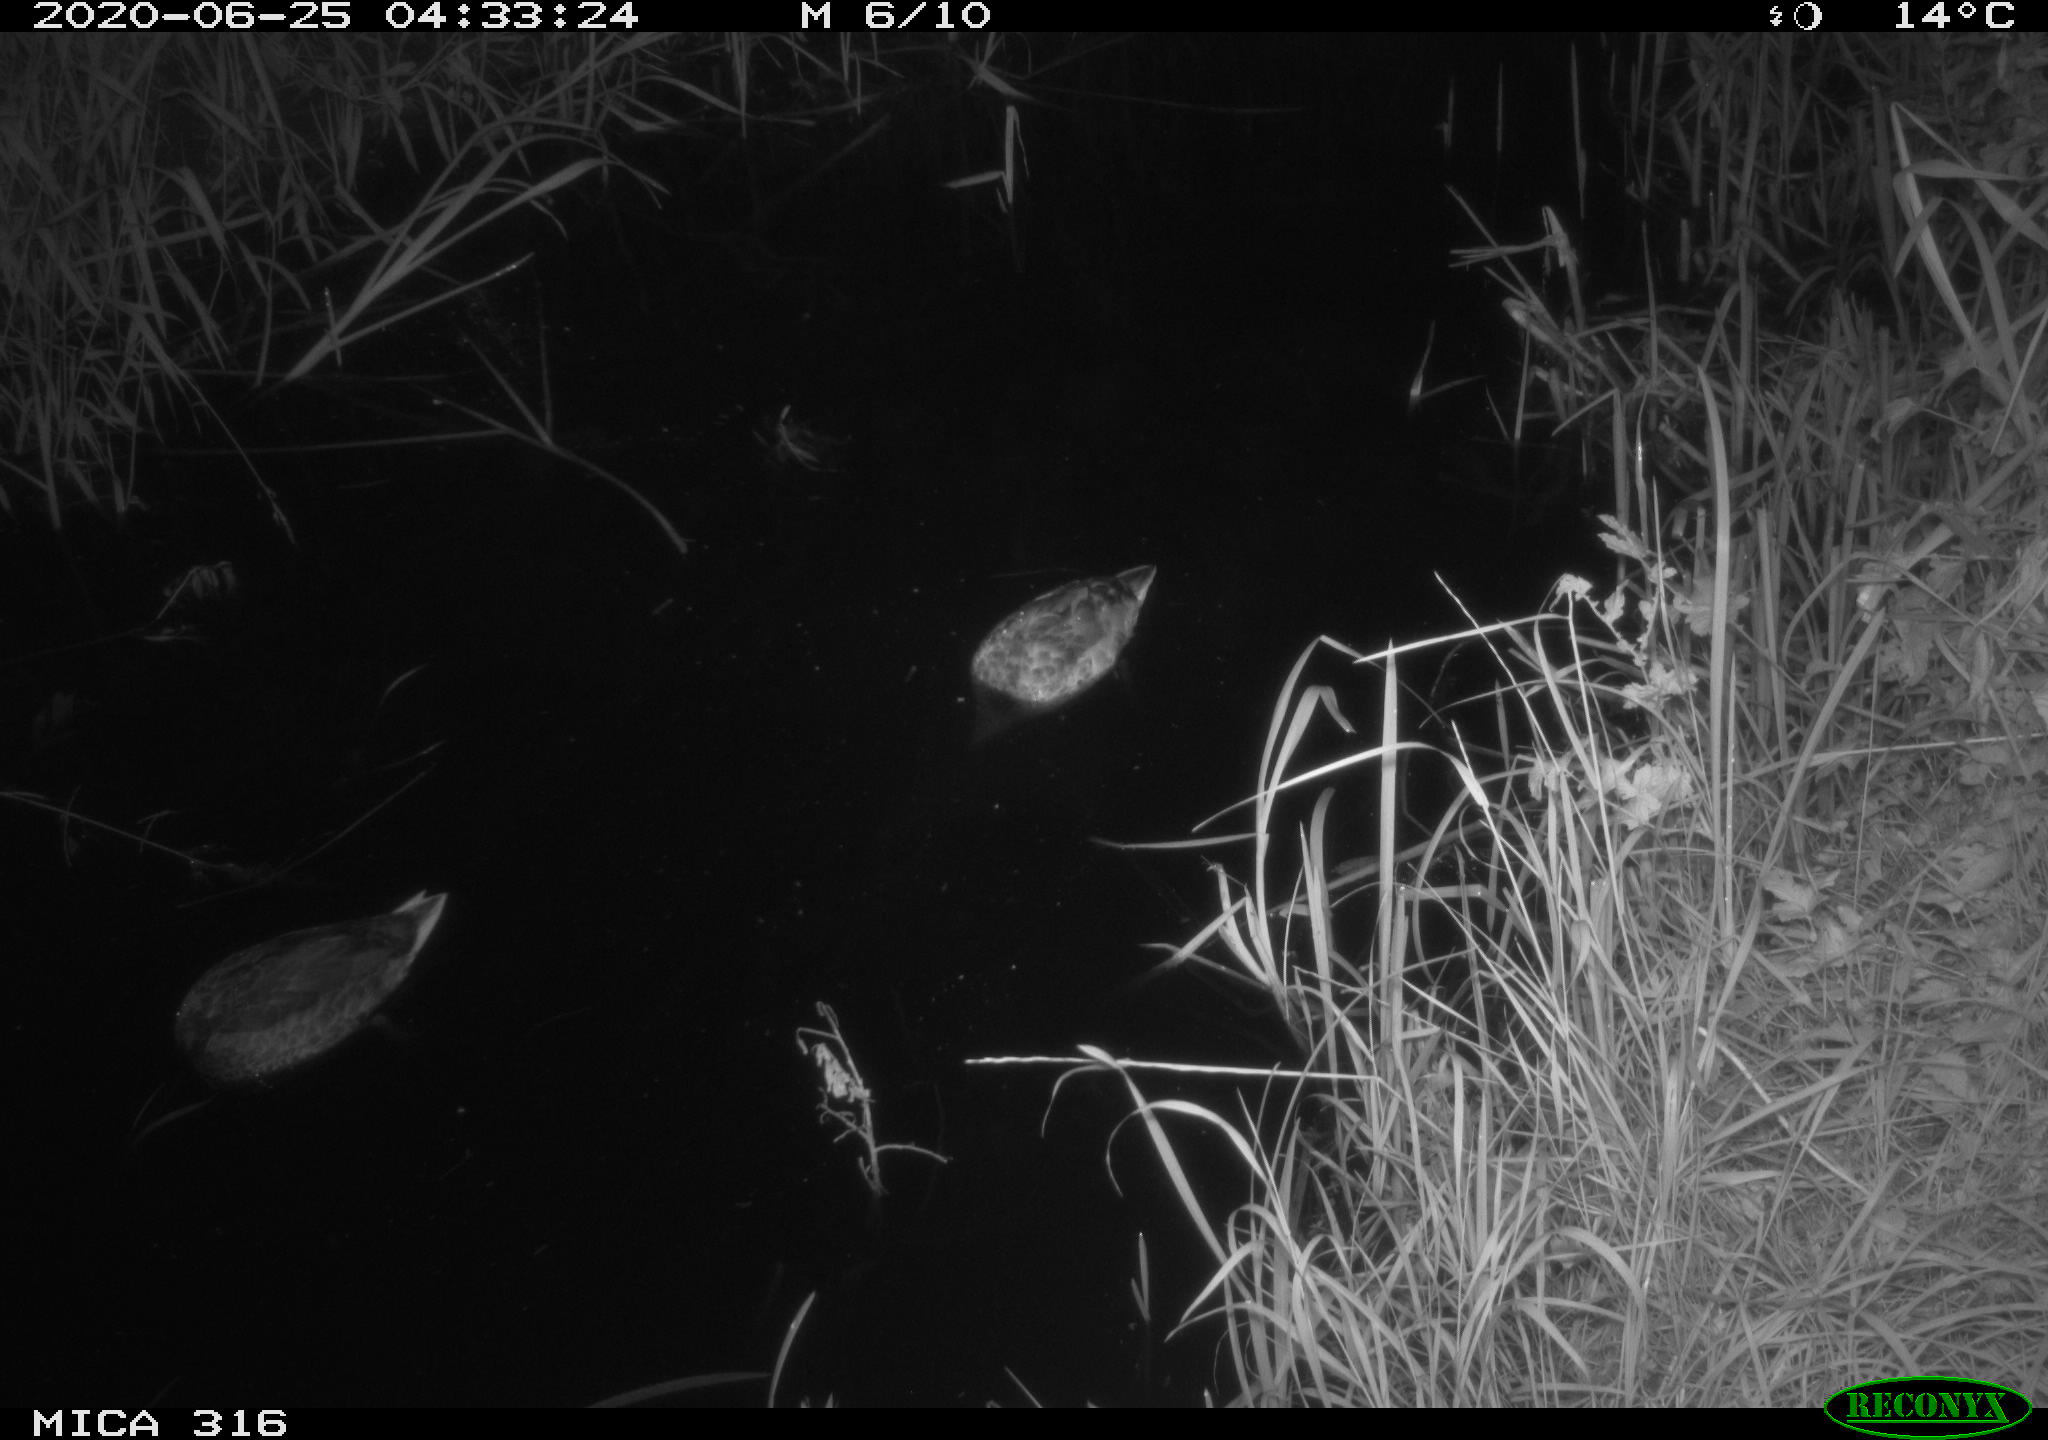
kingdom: Animalia
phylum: Chordata
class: Aves
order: Anseriformes
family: Anatidae
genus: Anas
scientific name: Anas platyrhynchos
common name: Mallard
